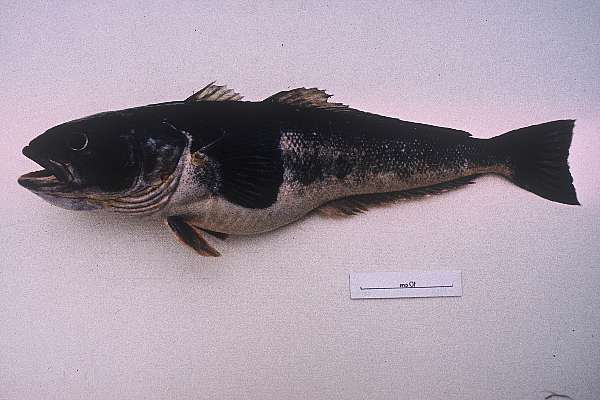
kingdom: Animalia
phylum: Chordata
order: Perciformes
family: Nototheniidae
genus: Notothenia
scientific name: Notothenia microlepidota
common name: Black cod
